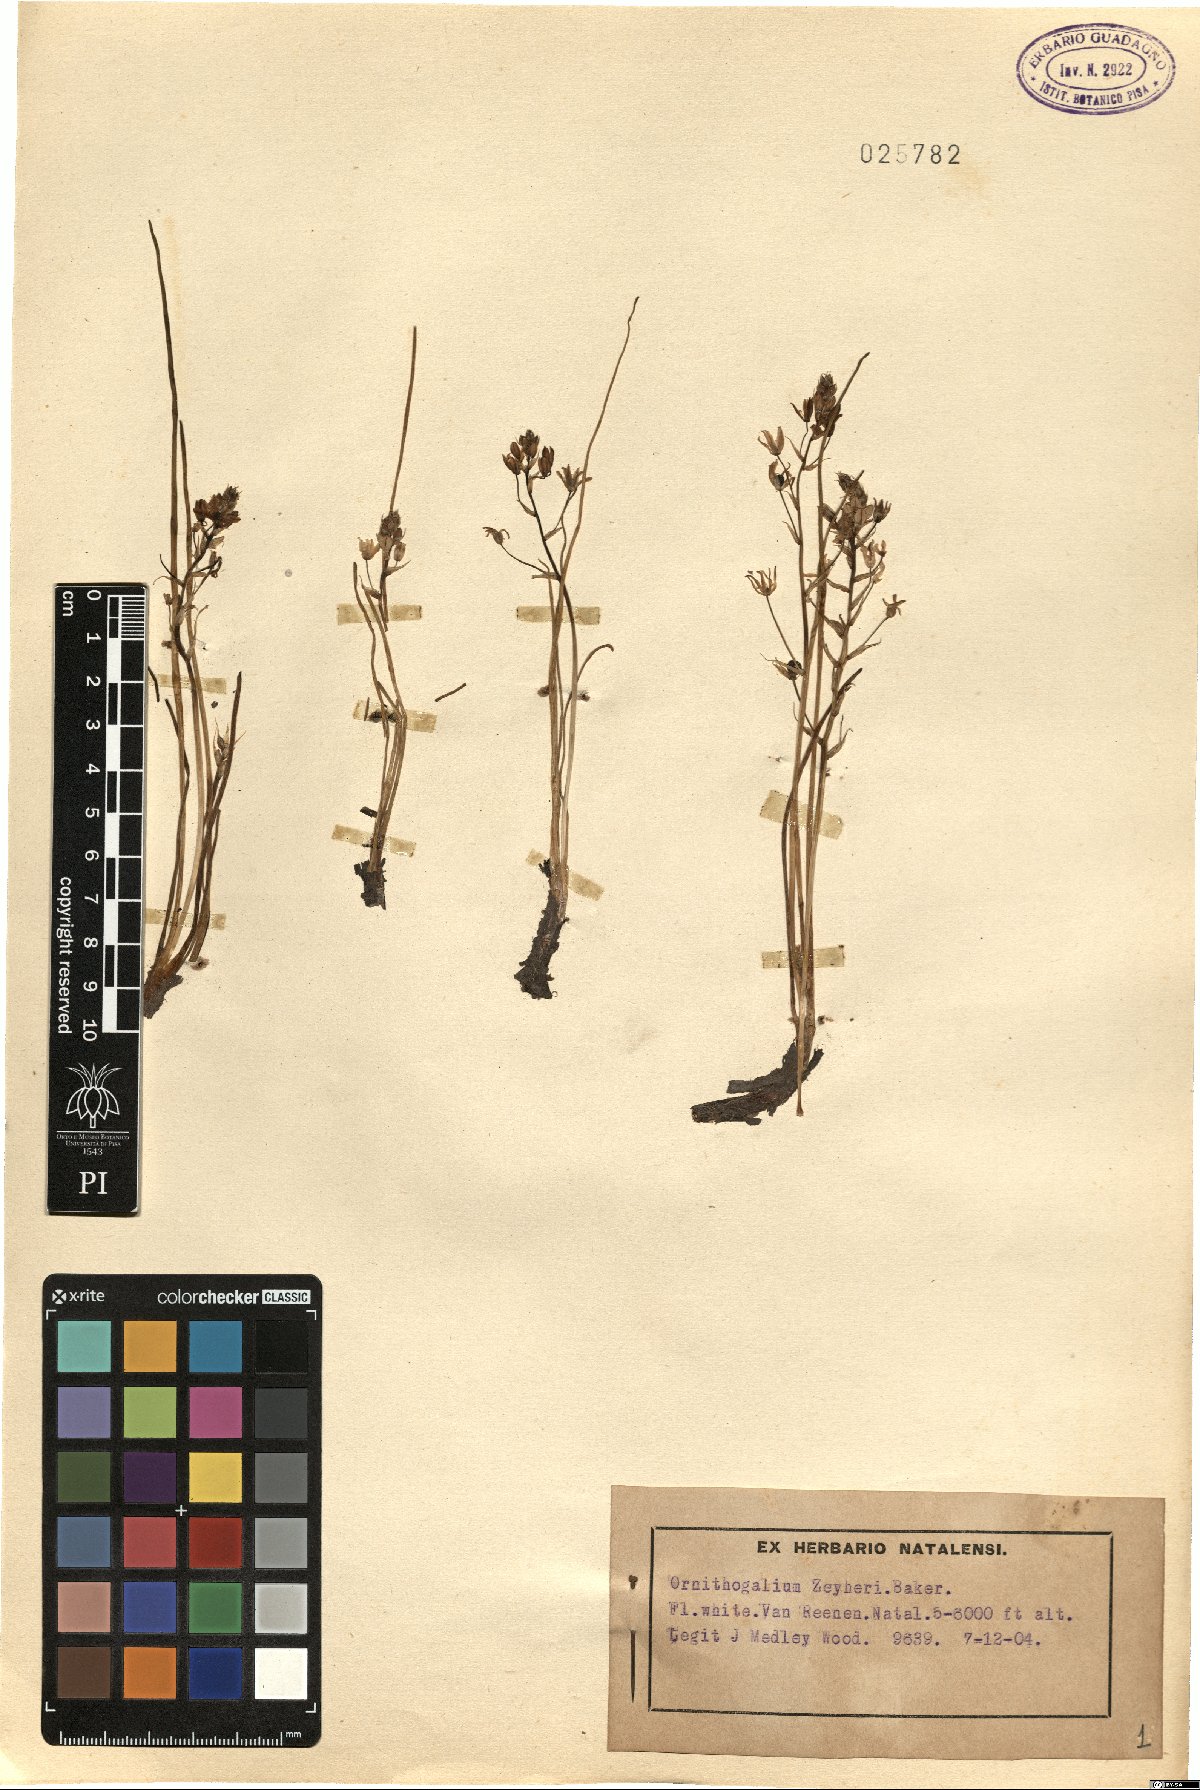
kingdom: Plantae
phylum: Tracheophyta
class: Liliopsida
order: Asparagales
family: Asparagaceae
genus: Ornithogalum
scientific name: Ornithogalum flexuosum
